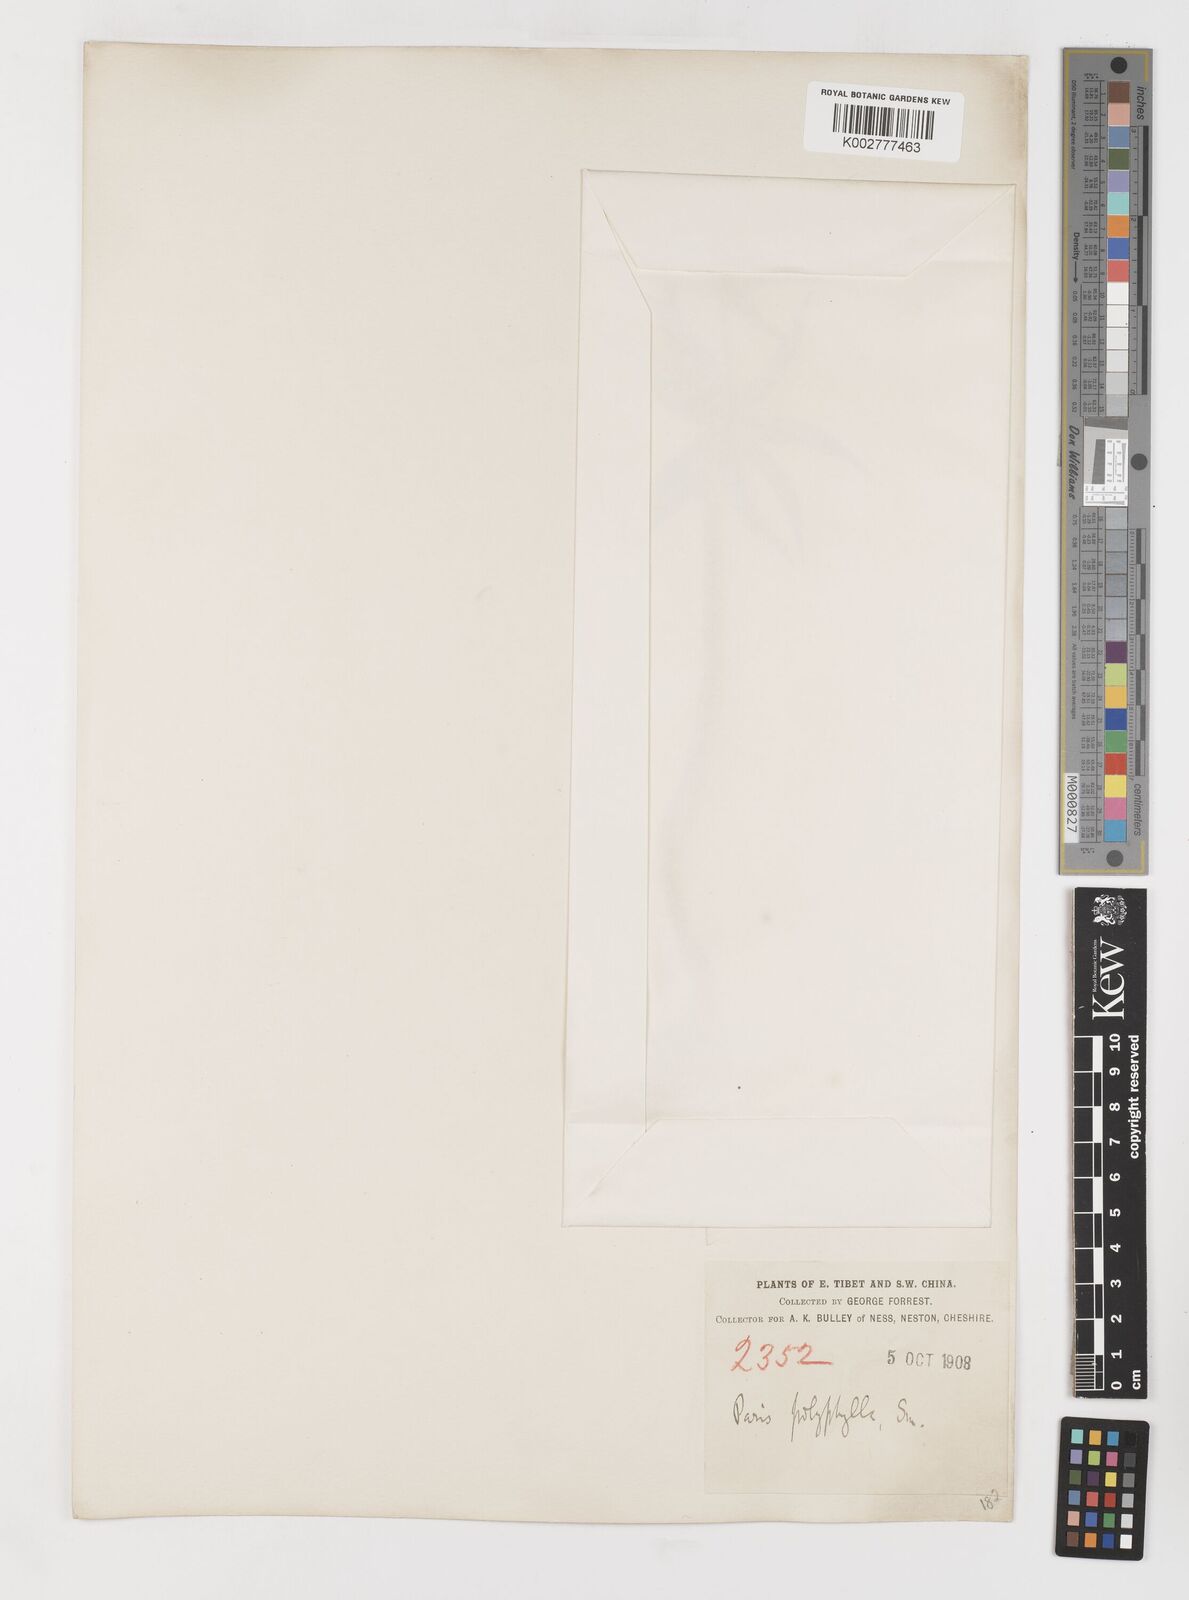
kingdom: Plantae
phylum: Tracheophyta
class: Liliopsida
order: Liliales
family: Melanthiaceae
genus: Paris
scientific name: Paris polyphylla
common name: Love apple
